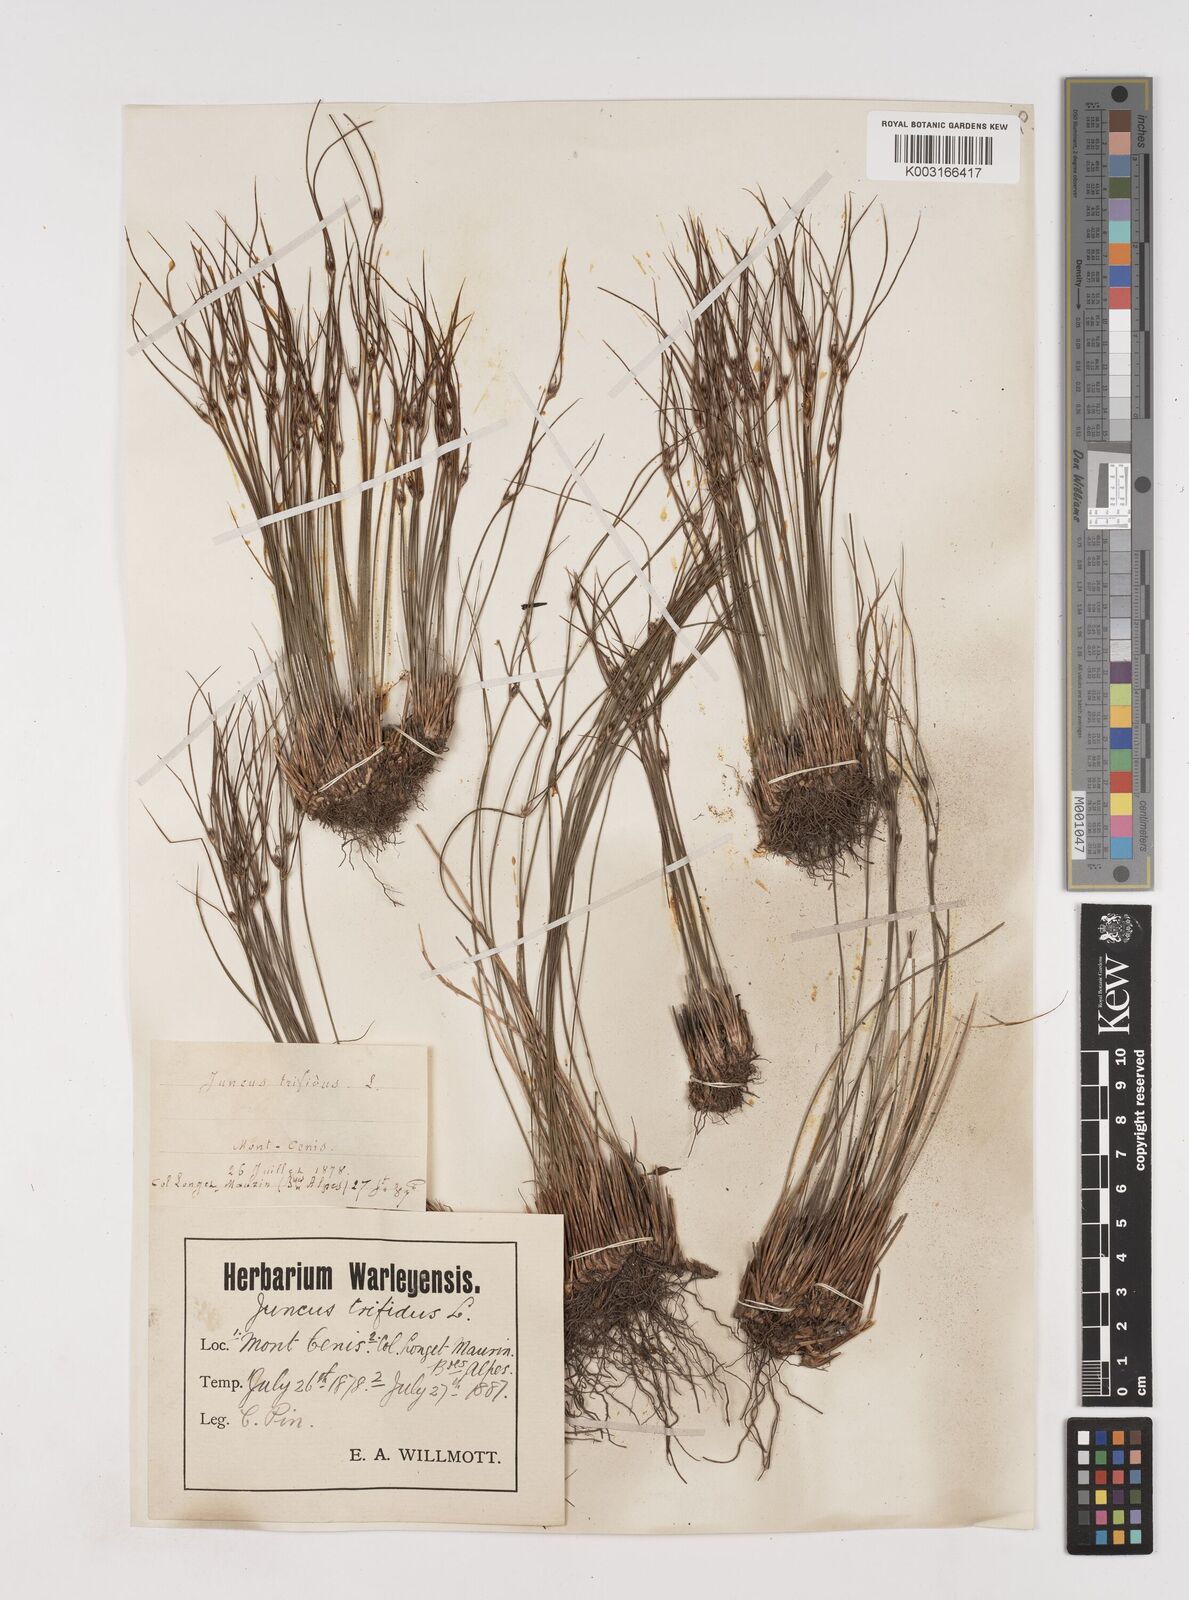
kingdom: Plantae
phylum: Tracheophyta
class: Liliopsida
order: Poales
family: Juncaceae
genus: Oreojuncus
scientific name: Oreojuncus trifidus
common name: Highland rush
